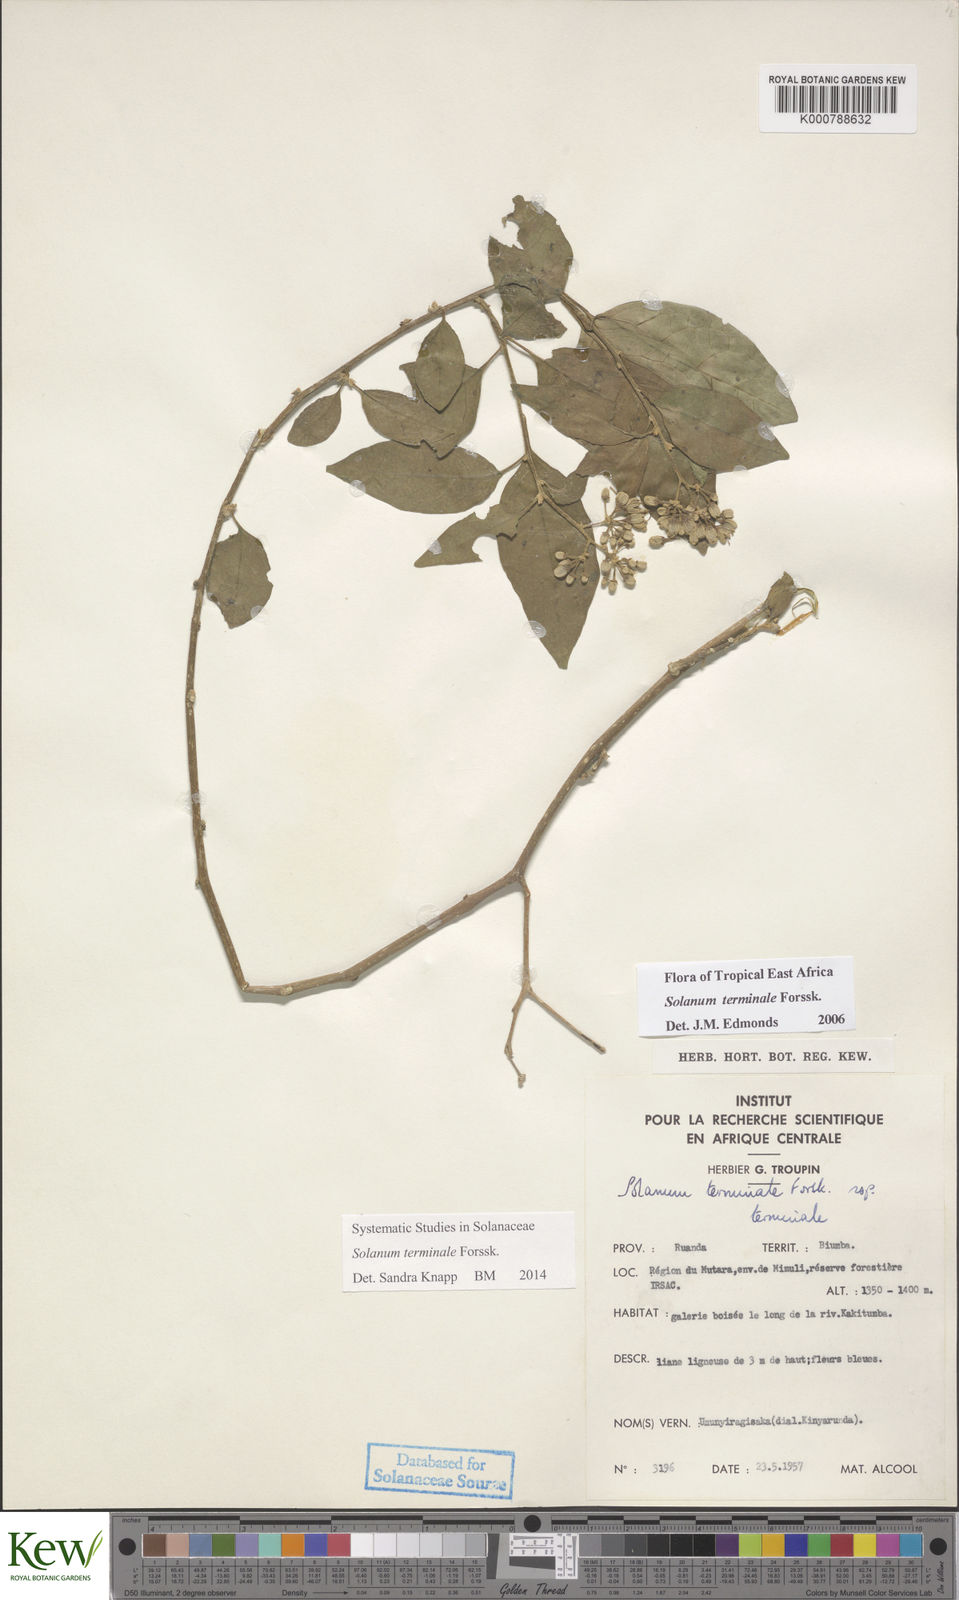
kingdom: Plantae
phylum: Tracheophyta
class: Magnoliopsida
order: Solanales
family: Solanaceae
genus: Solanum
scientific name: Solanum terminale
